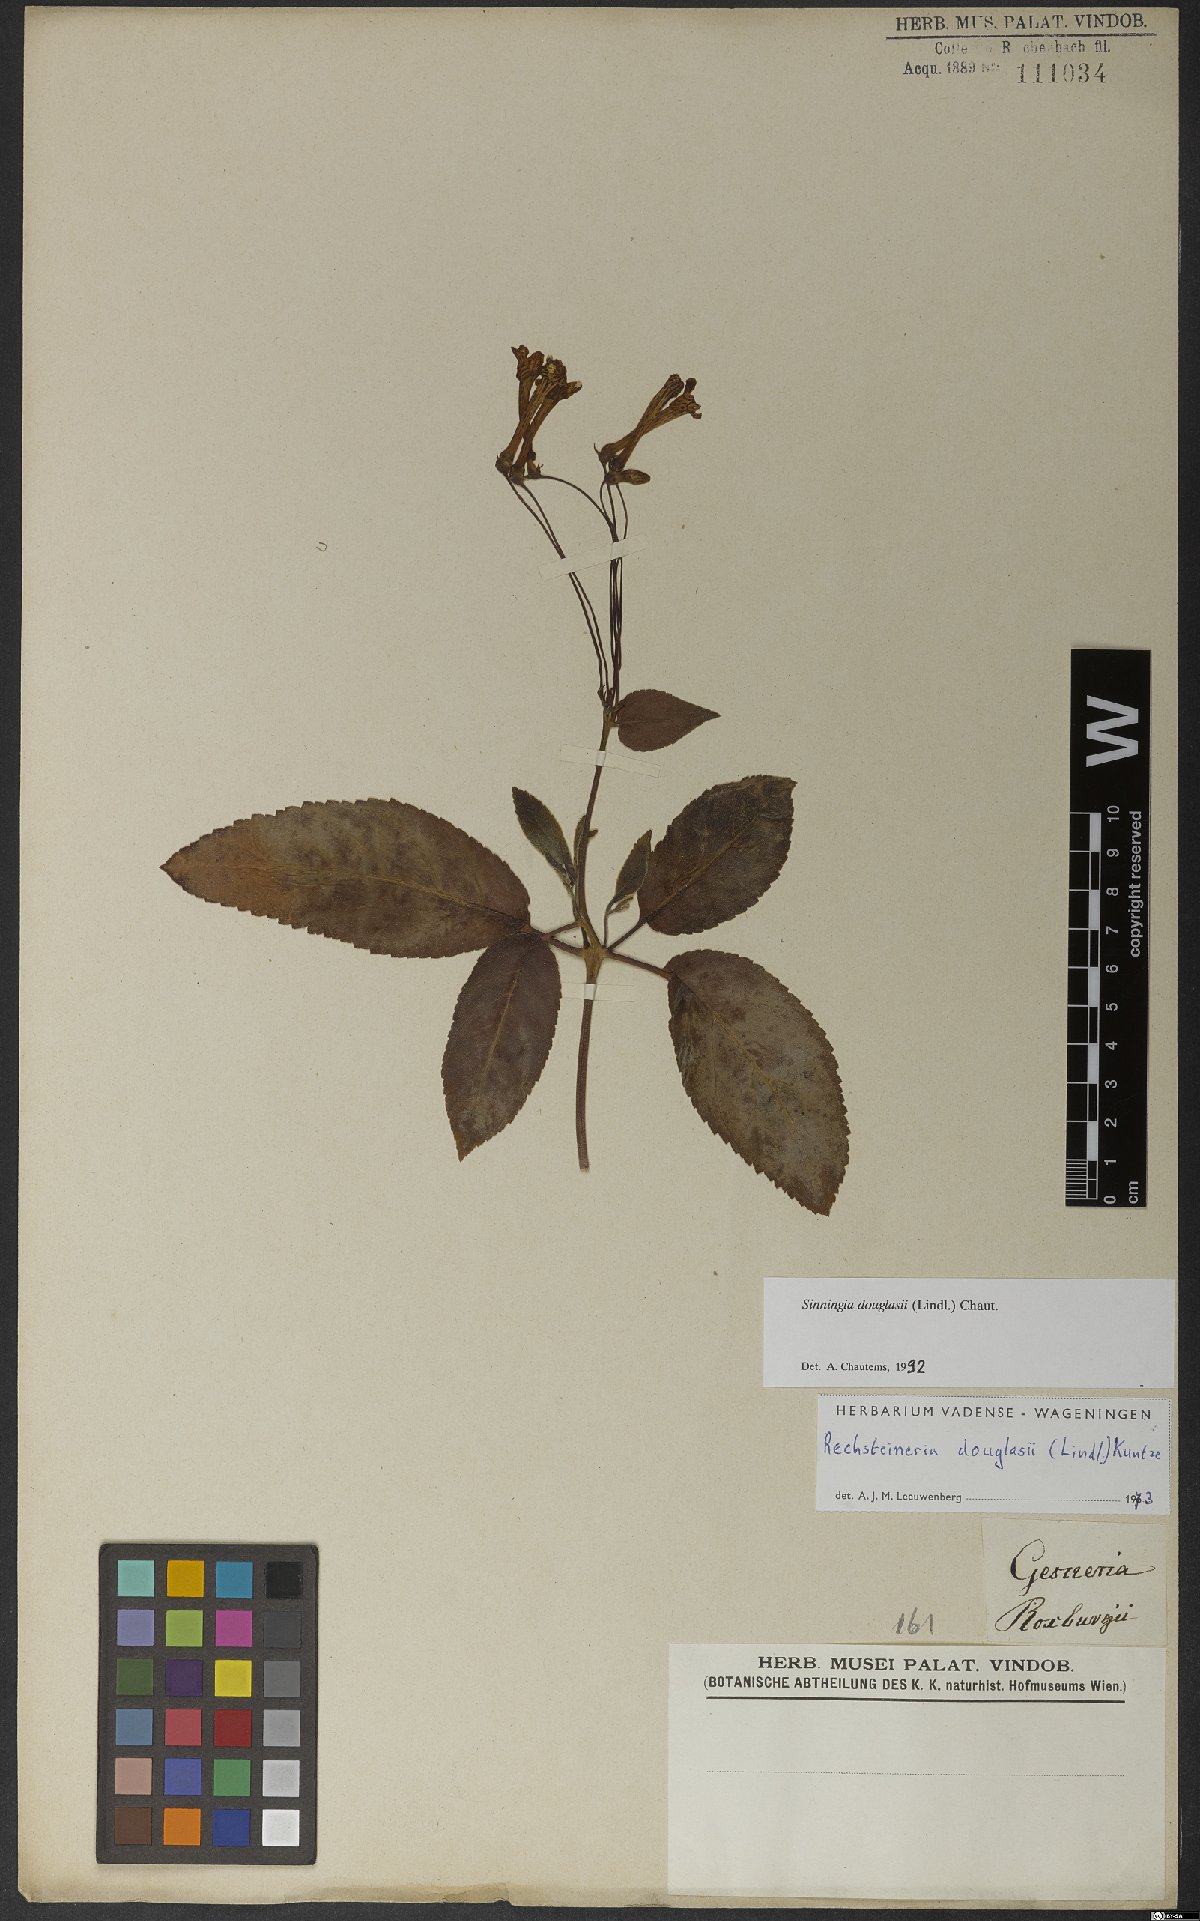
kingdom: Plantae
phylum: Tracheophyta
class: Magnoliopsida
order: Lamiales
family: Gesneriaceae
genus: Sinningia
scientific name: Sinningia douglasii
